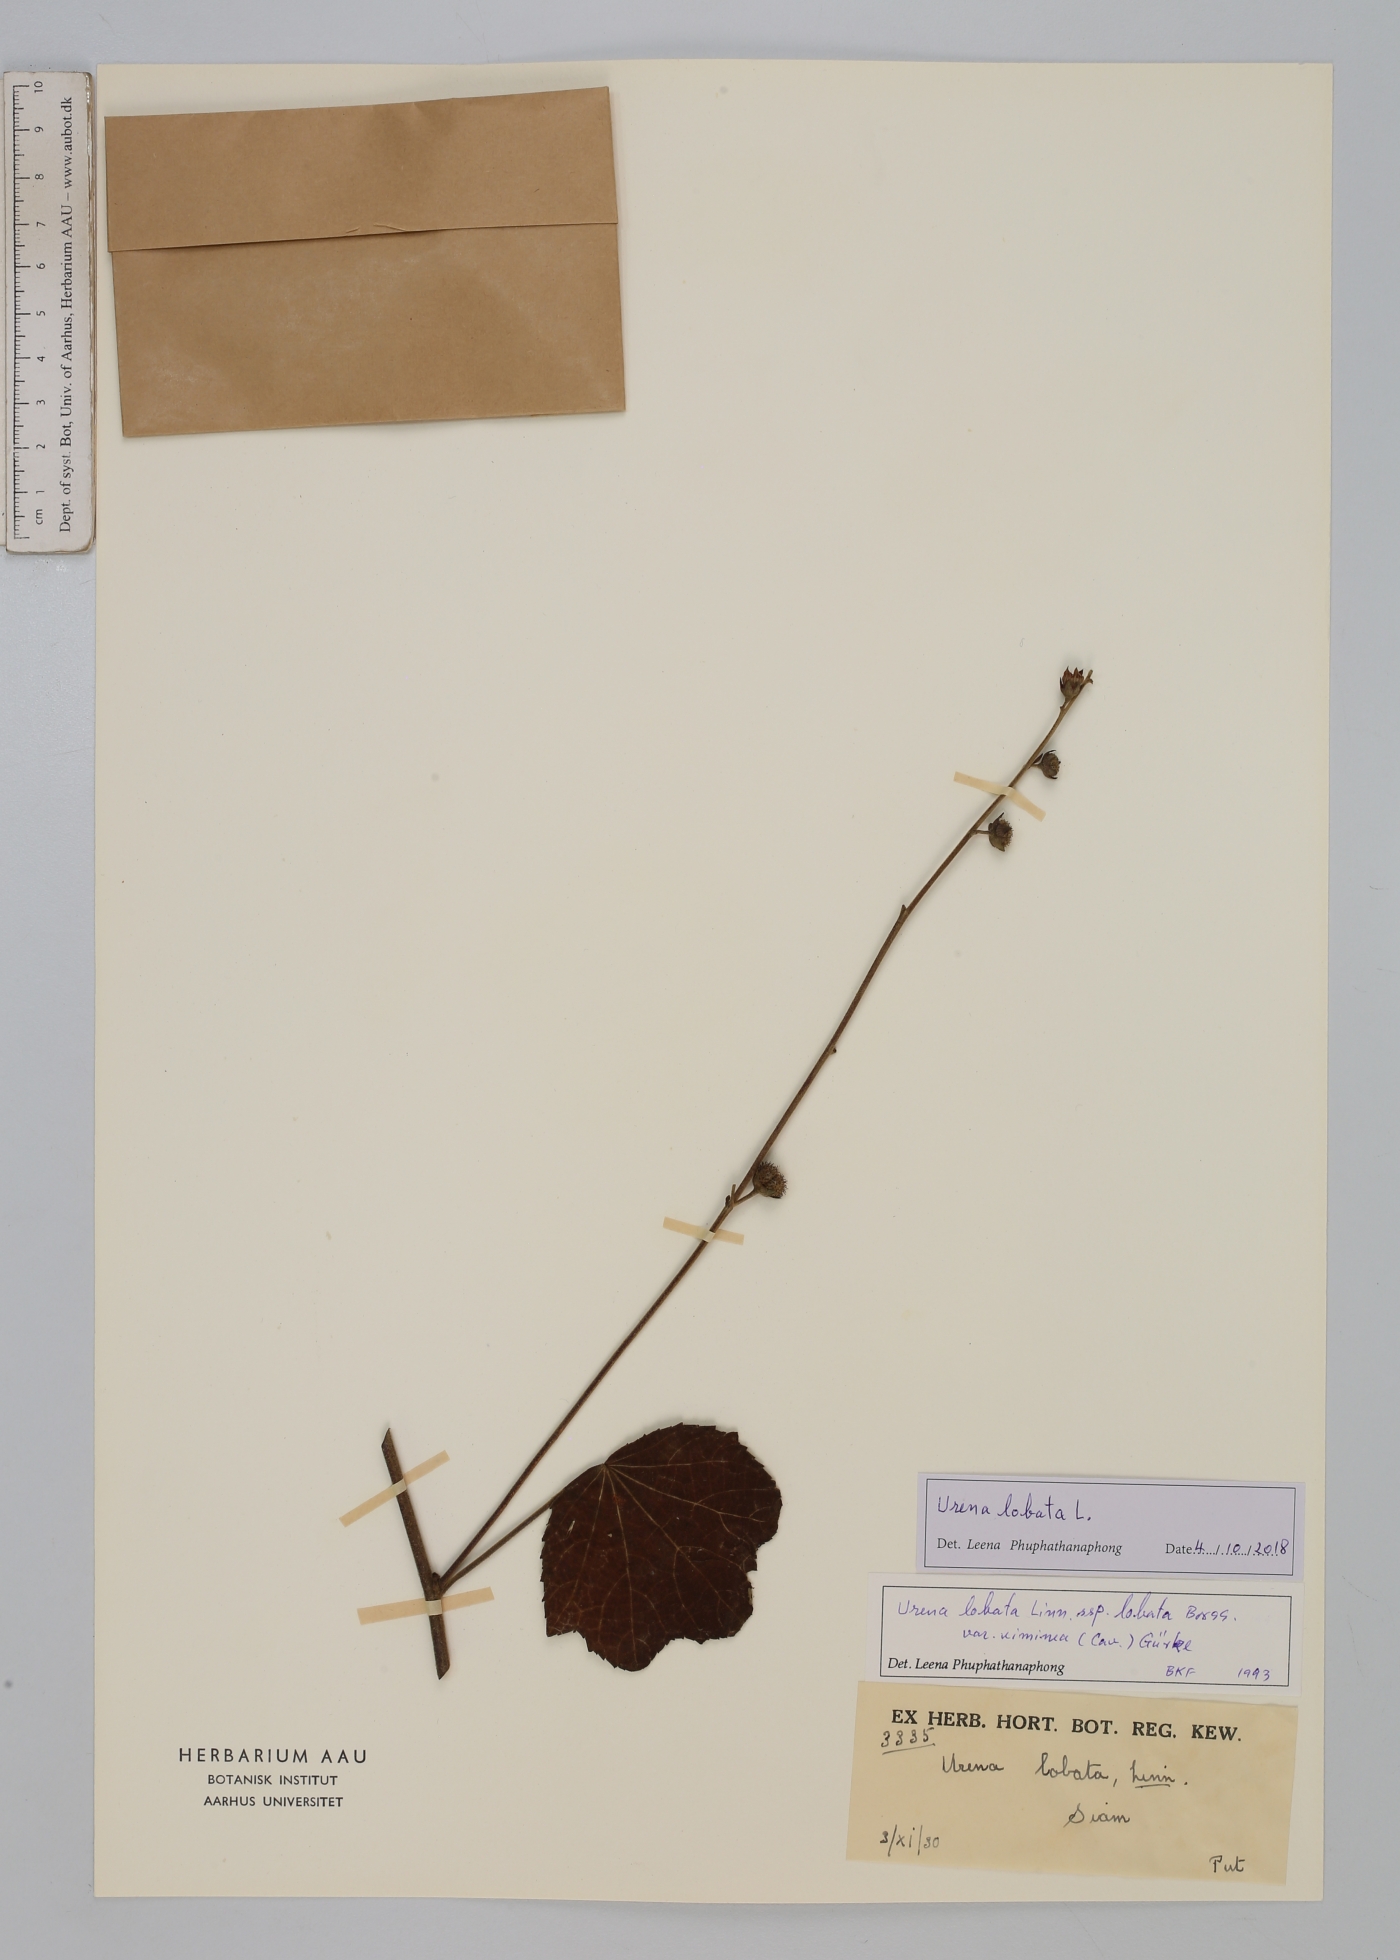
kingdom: Plantae
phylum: Tracheophyta
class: Magnoliopsida
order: Malvales
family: Malvaceae
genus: Urena
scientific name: Urena lobata
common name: Caesarweed
